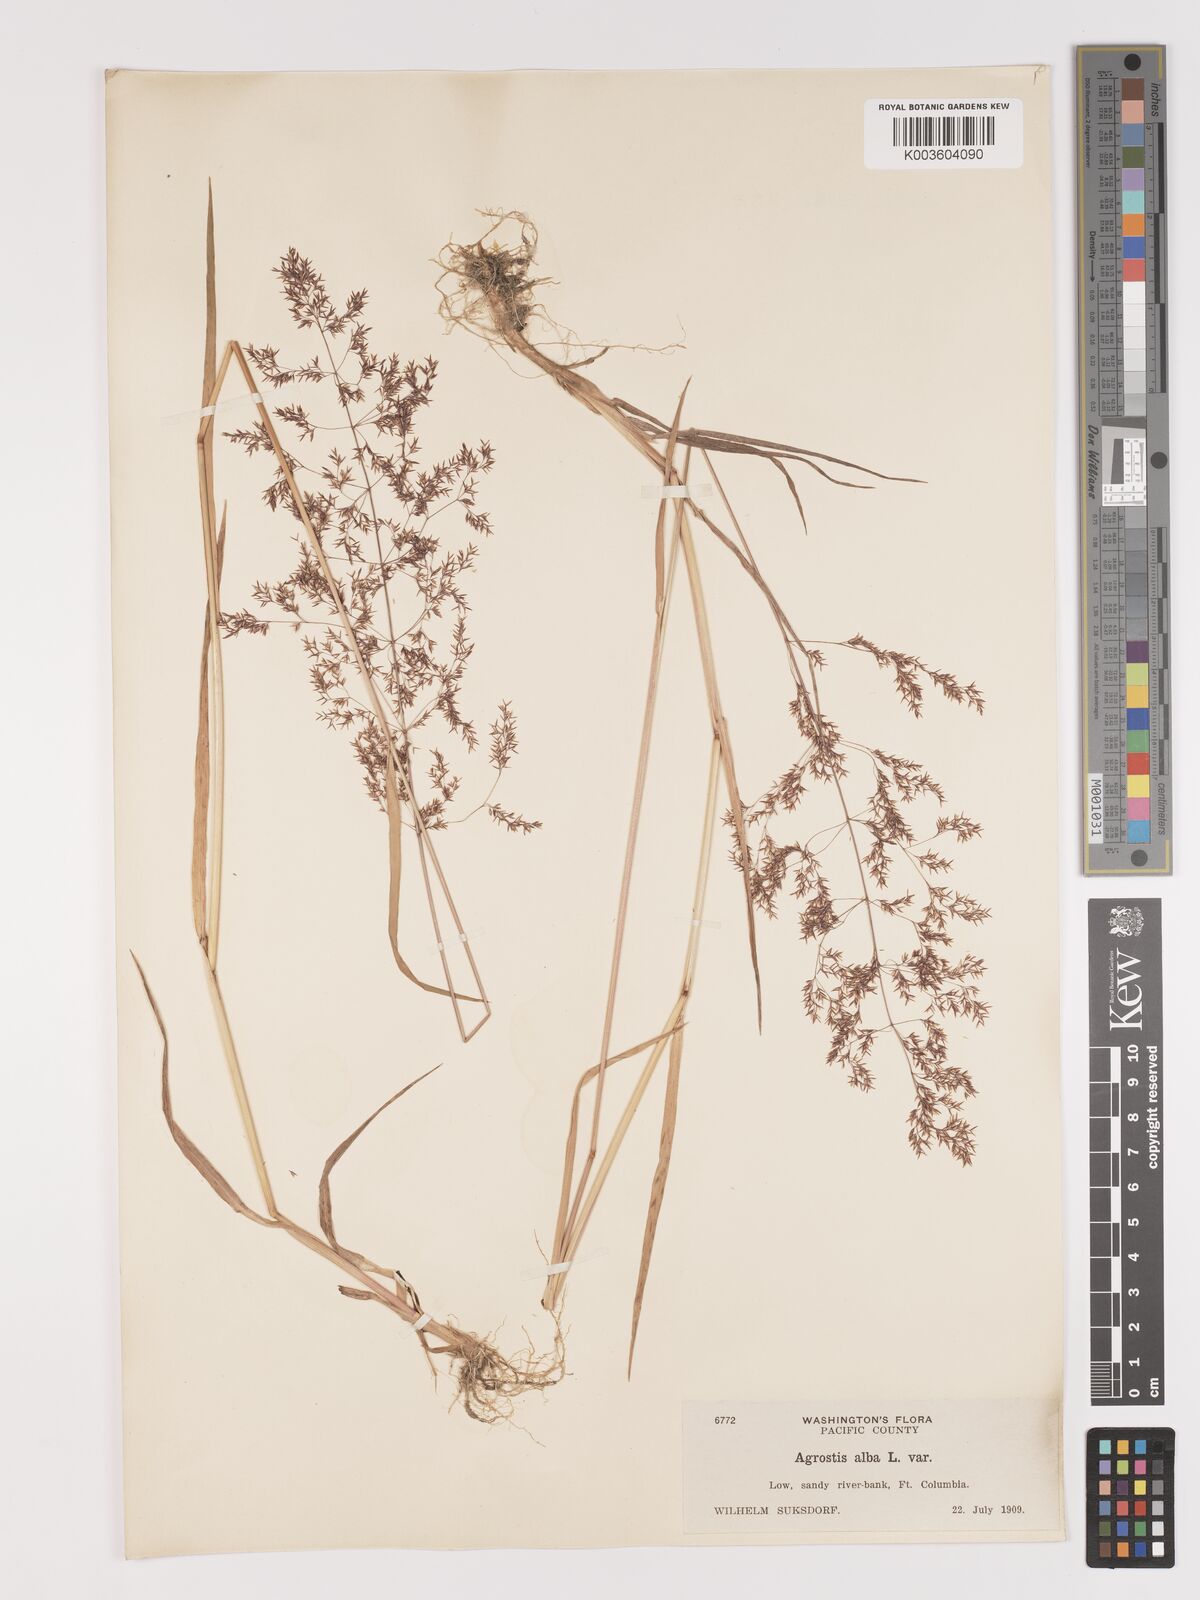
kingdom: Plantae
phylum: Tracheophyta
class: Liliopsida
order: Poales
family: Poaceae
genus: Agrostis
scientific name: Agrostis gigantea
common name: Black bent
